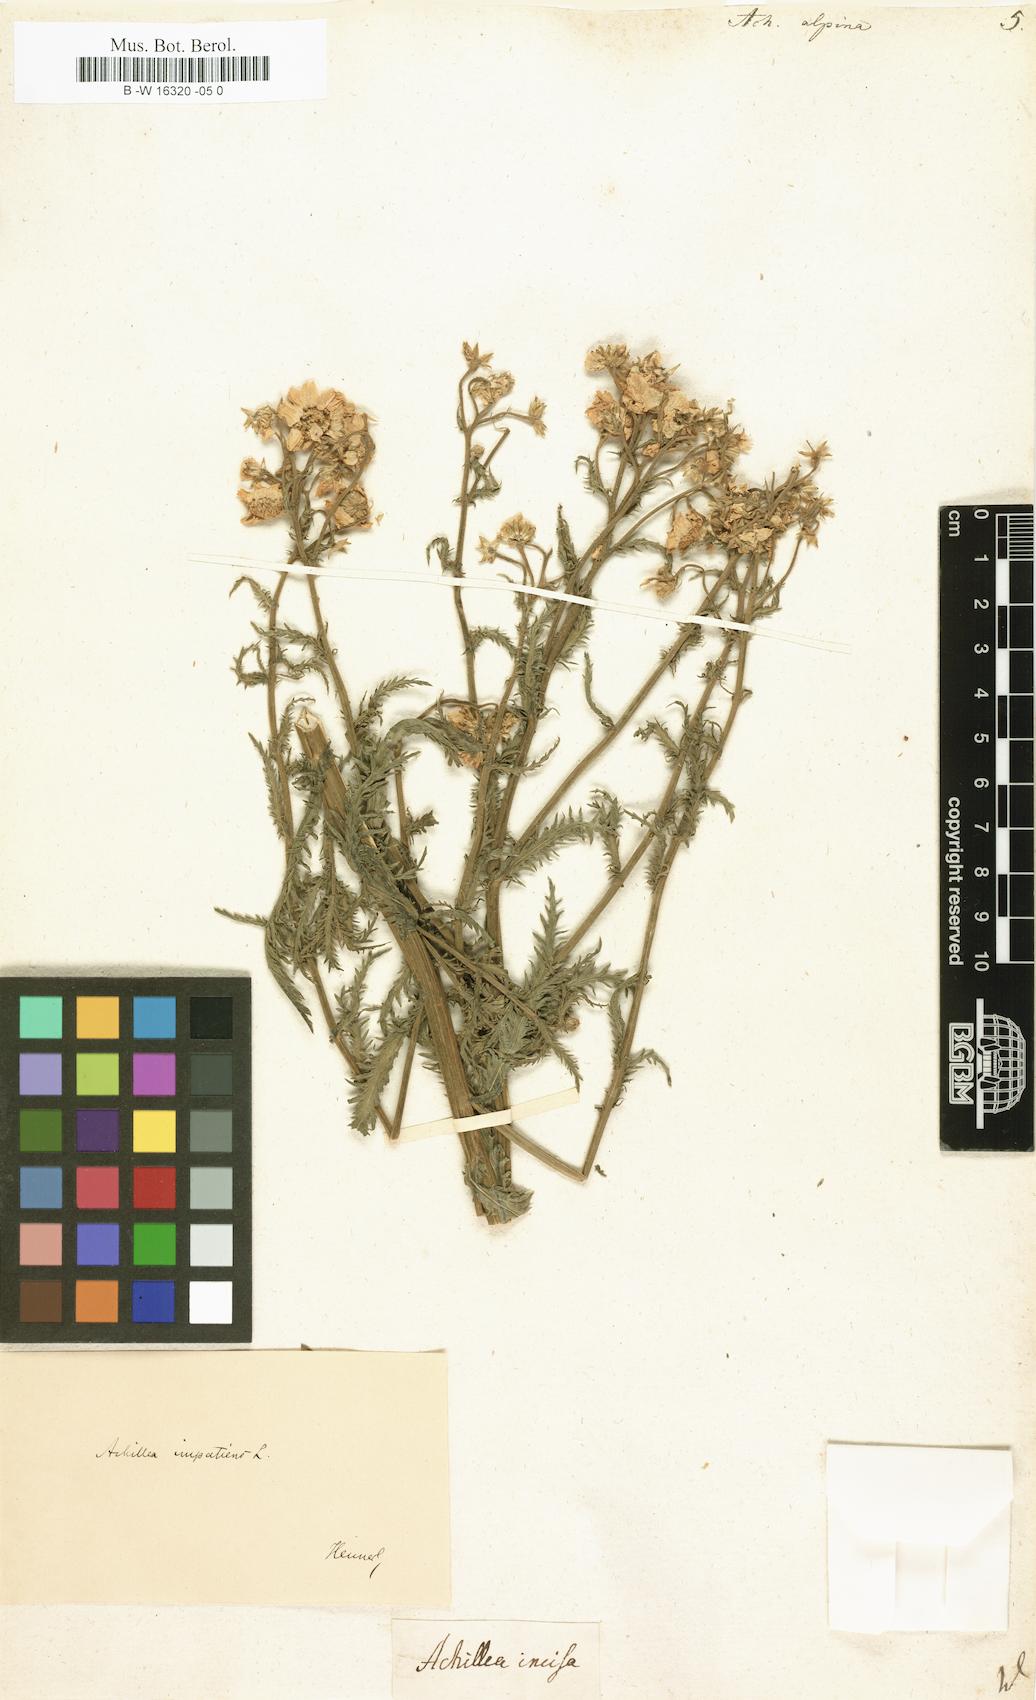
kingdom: Plantae
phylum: Tracheophyta
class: Magnoliopsida
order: Asterales
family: Asteraceae
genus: Achillea
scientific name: Achillea alpina
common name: Siberian yarrow
